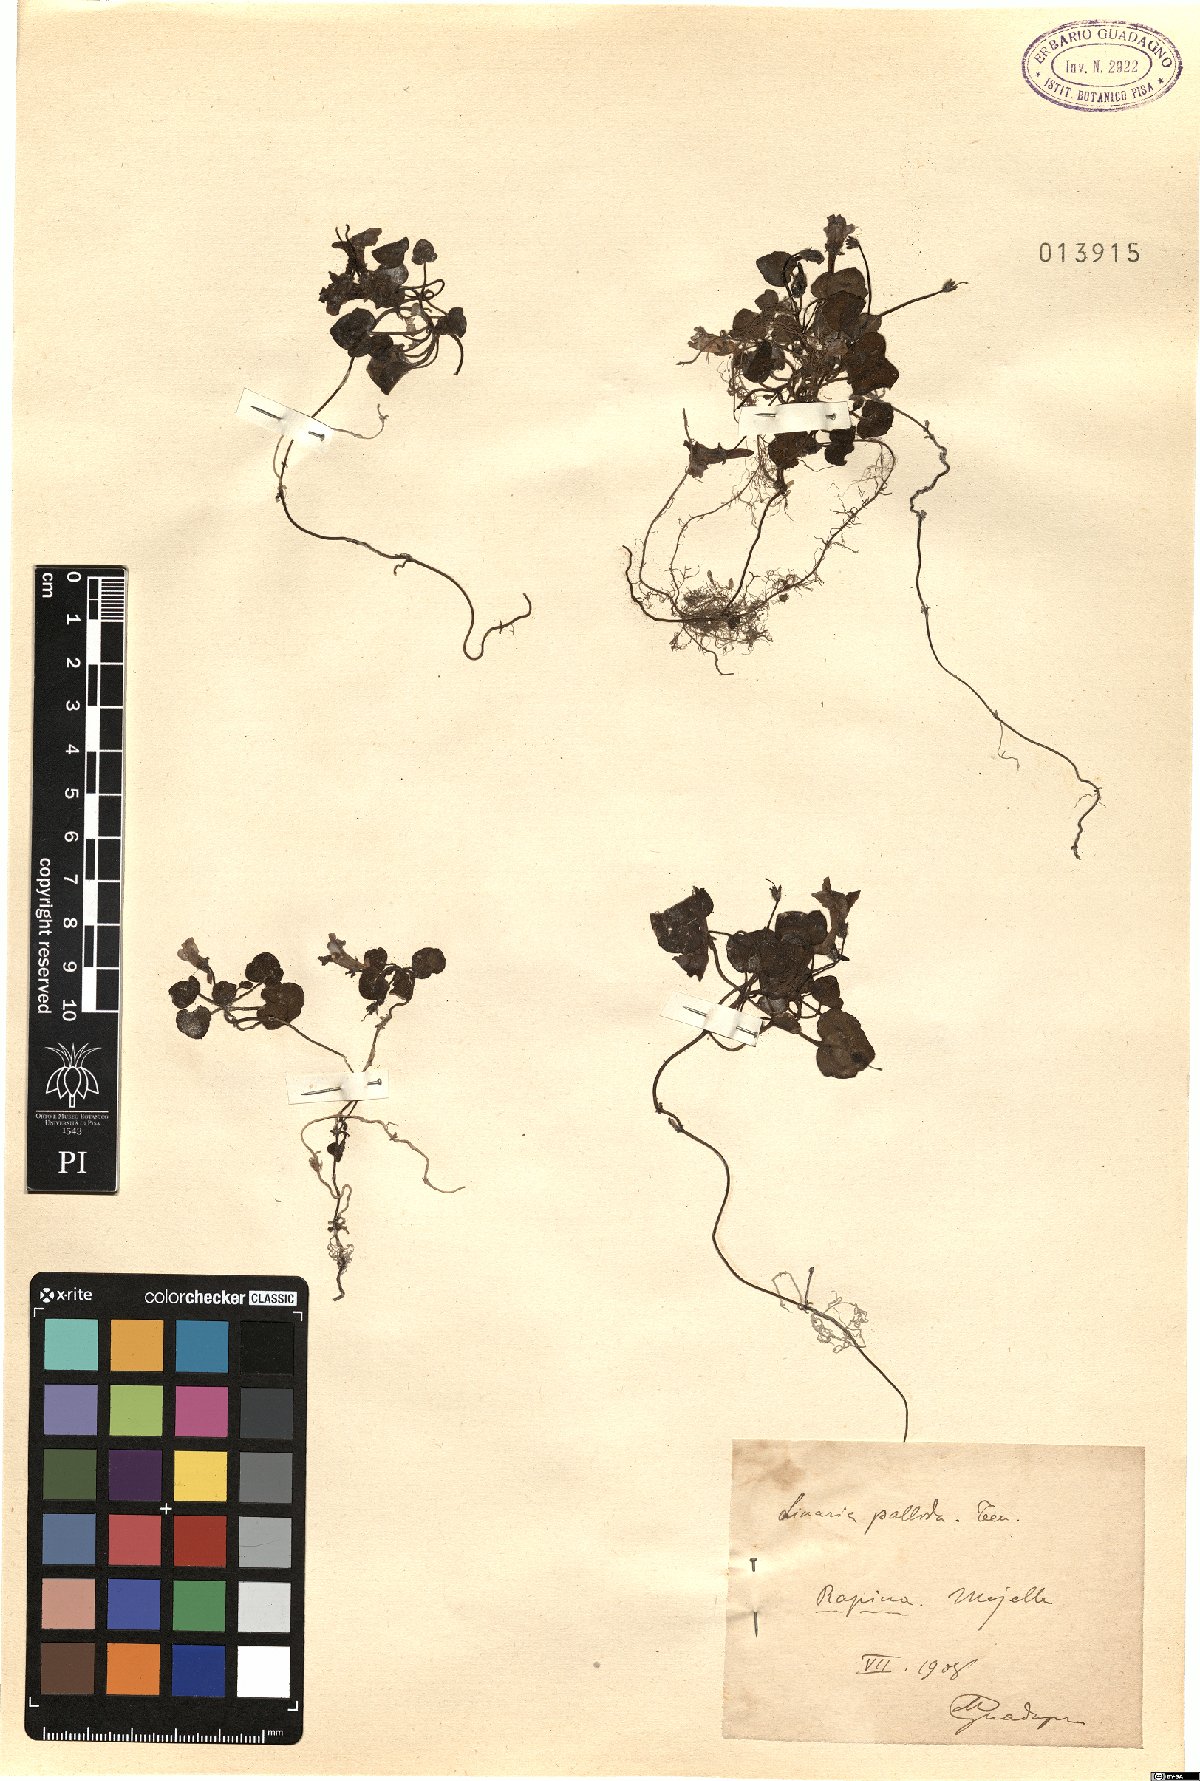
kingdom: Plantae
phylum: Tracheophyta
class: Magnoliopsida
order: Lamiales
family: Plantaginaceae
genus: Cymbalaria
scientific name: Cymbalaria pallida
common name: Italian toadflax
